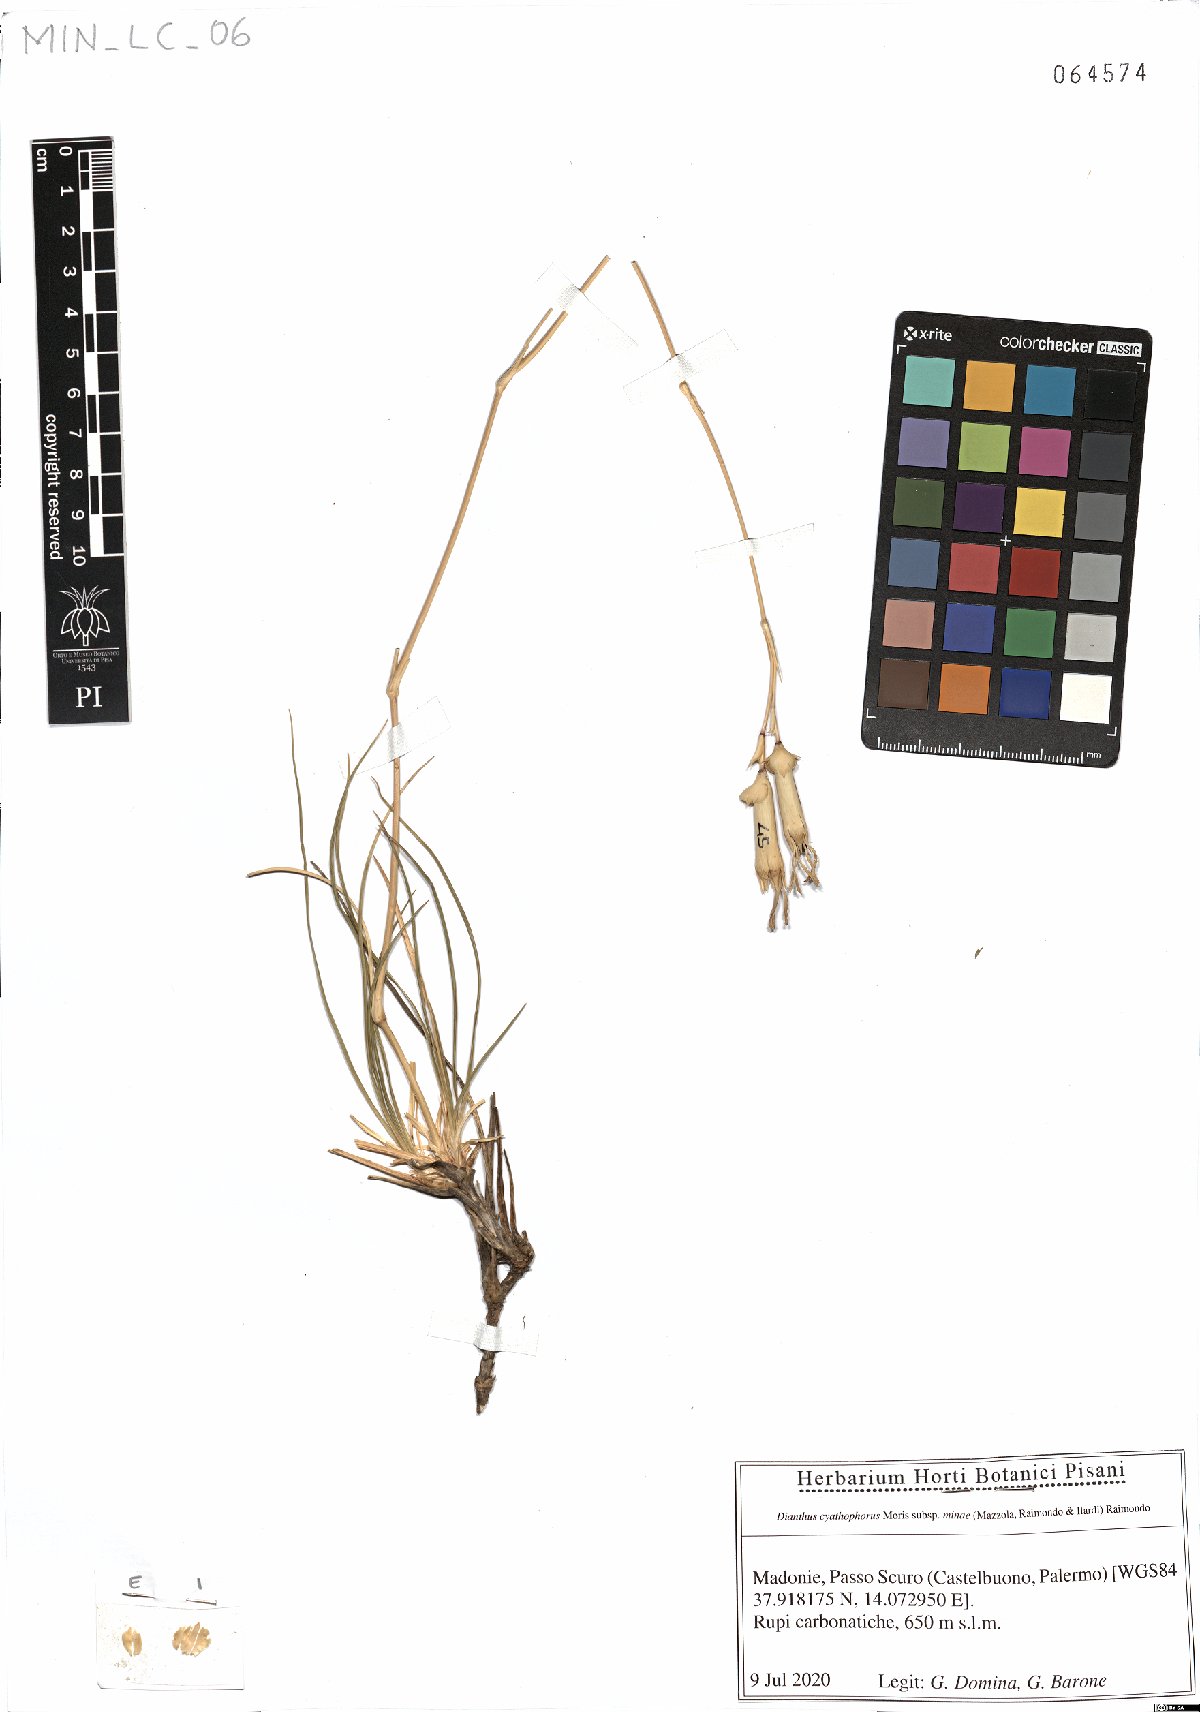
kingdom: Plantae
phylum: Tracheophyta
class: Magnoliopsida
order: Caryophyllales
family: Caryophyllaceae
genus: Dianthus
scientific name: Dianthus siculus
